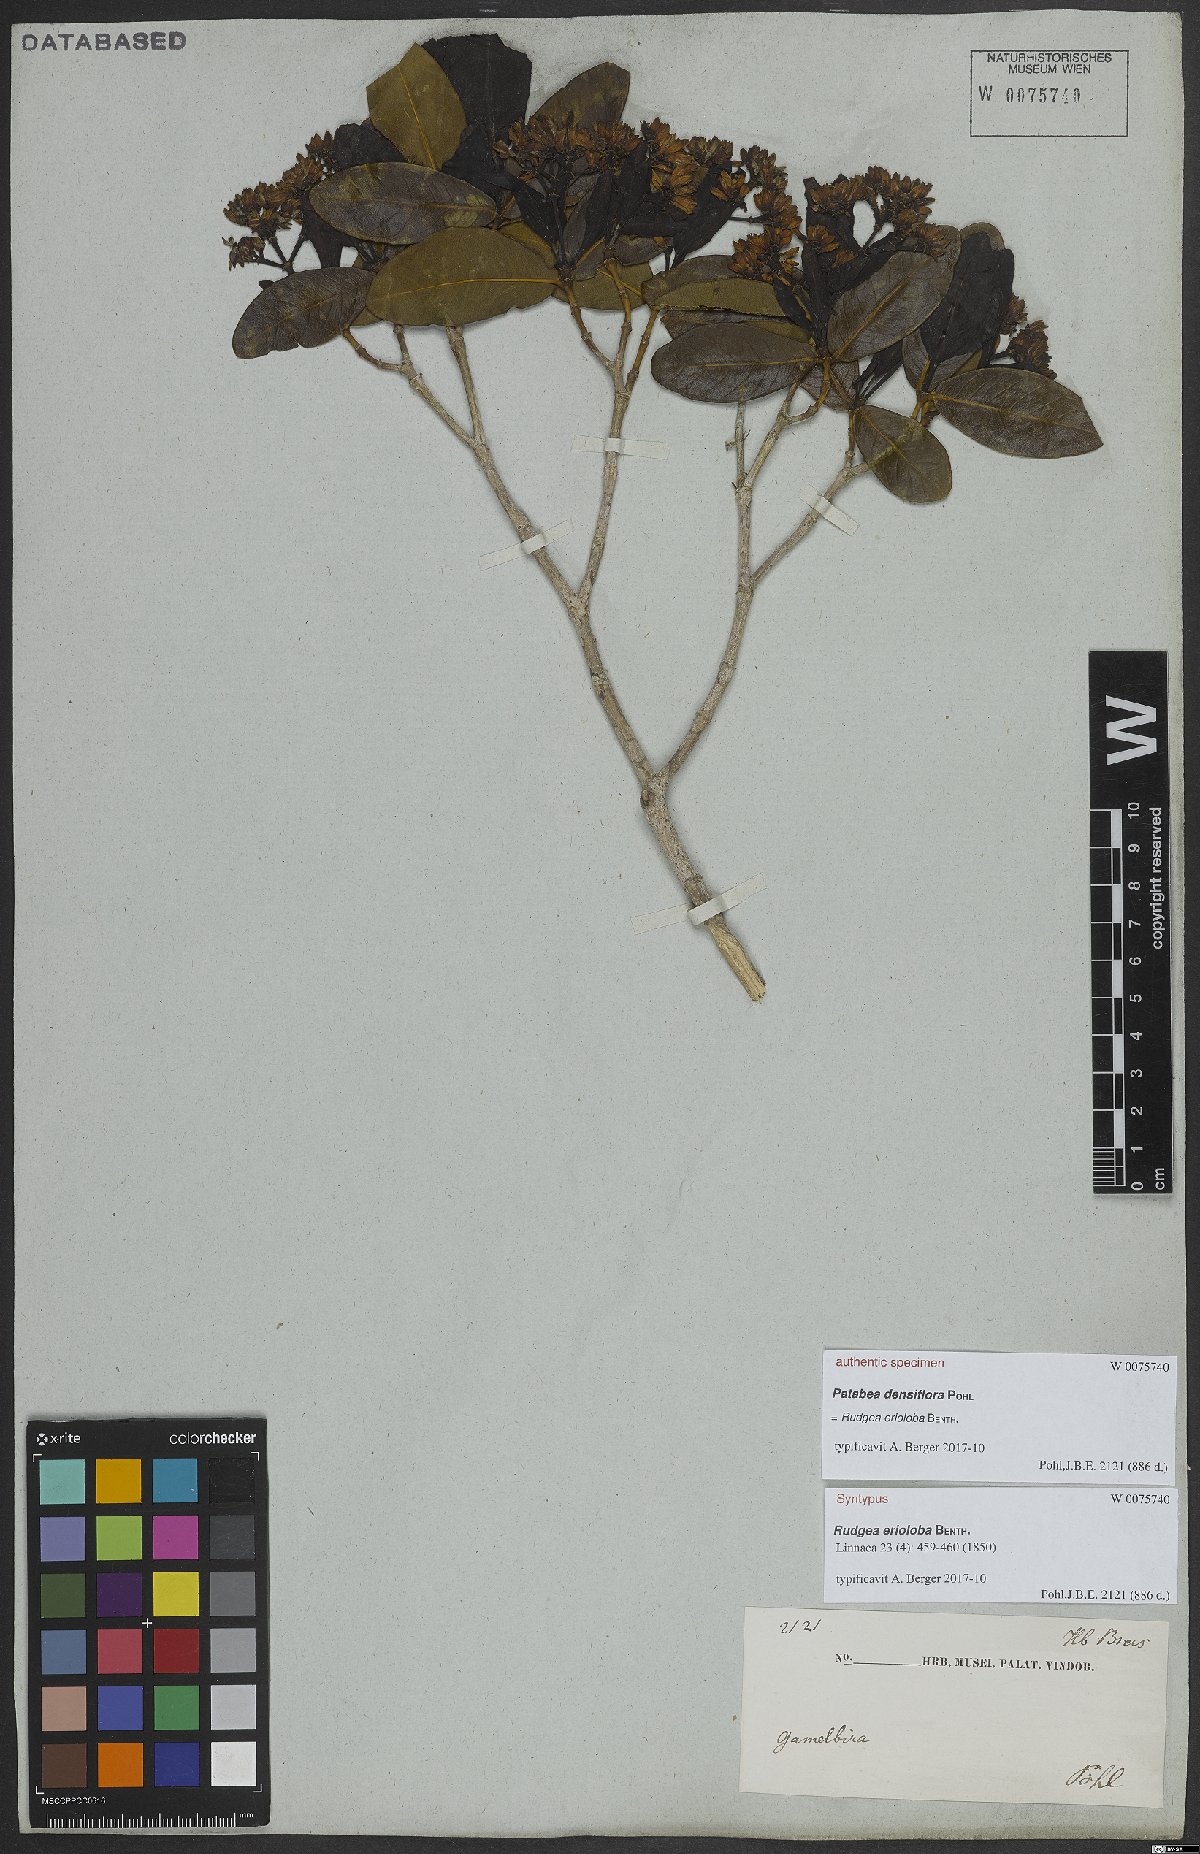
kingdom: Plantae
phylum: Tracheophyta
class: Magnoliopsida
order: Gentianales
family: Rubiaceae
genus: Rudgea
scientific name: Rudgea erioloba
